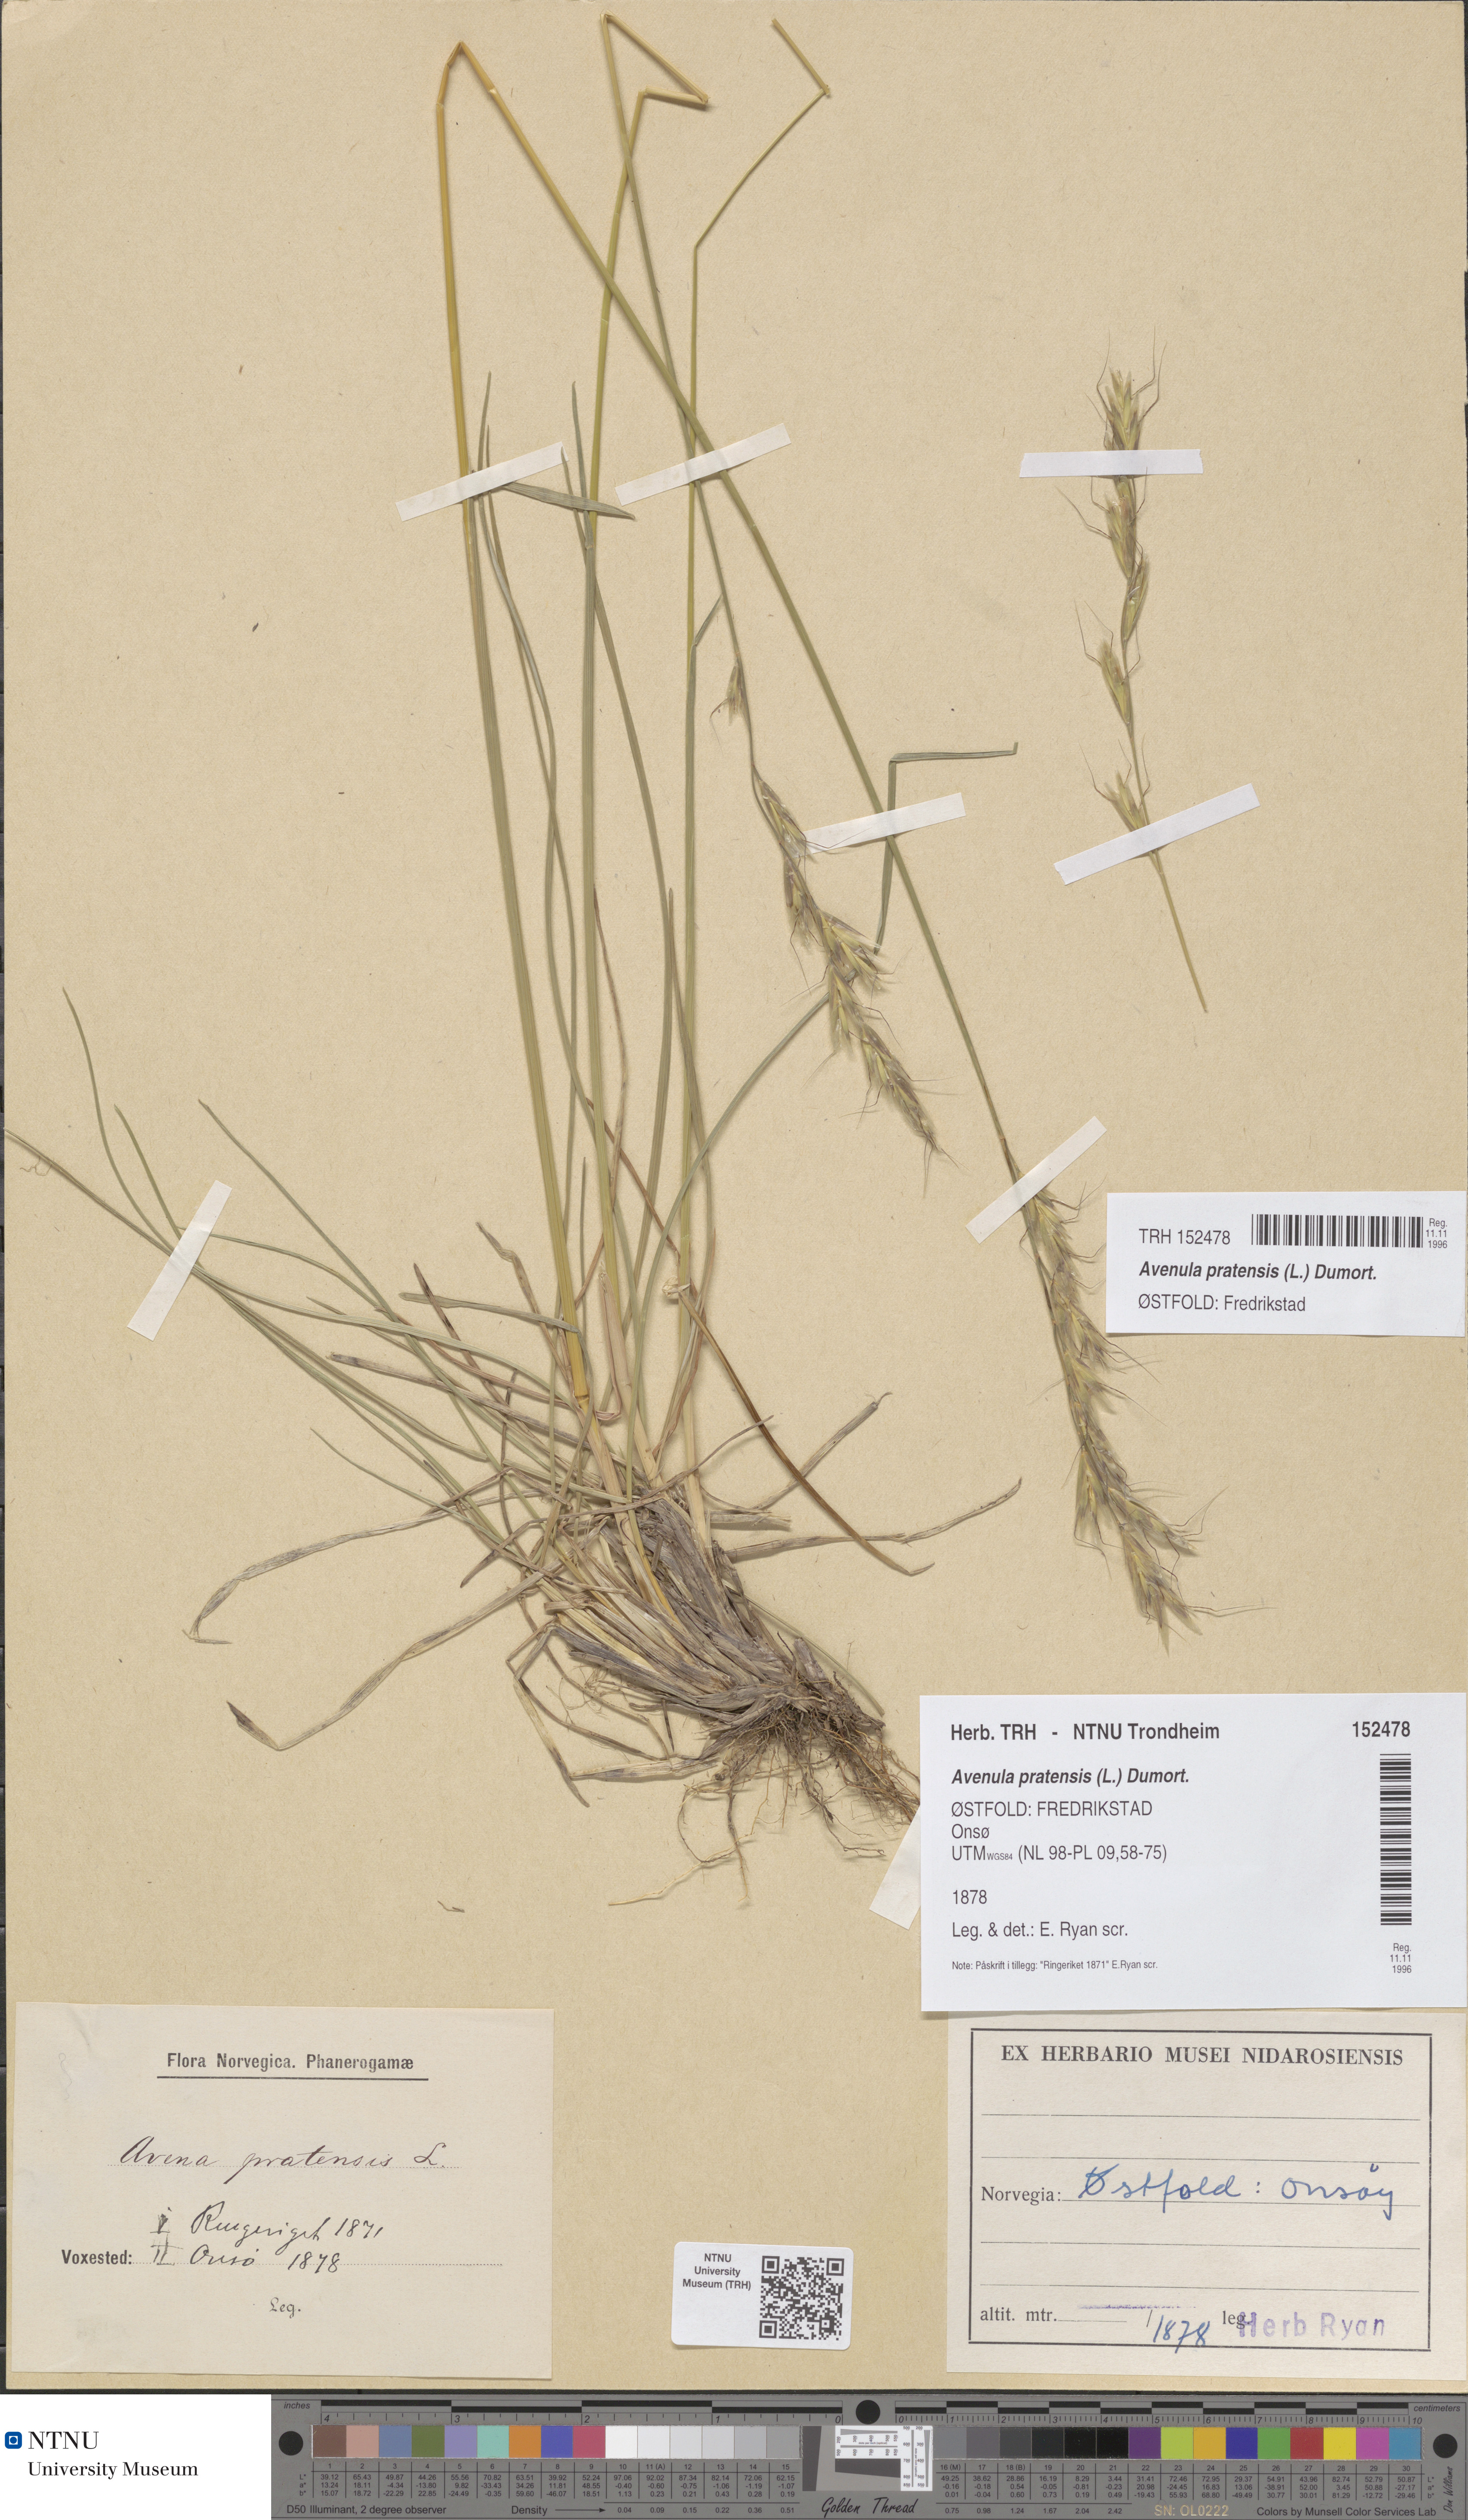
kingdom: Plantae
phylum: Tracheophyta
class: Liliopsida
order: Poales
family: Poaceae
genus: Helictochloa
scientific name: Helictochloa pratensis
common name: Meadow oat grass
